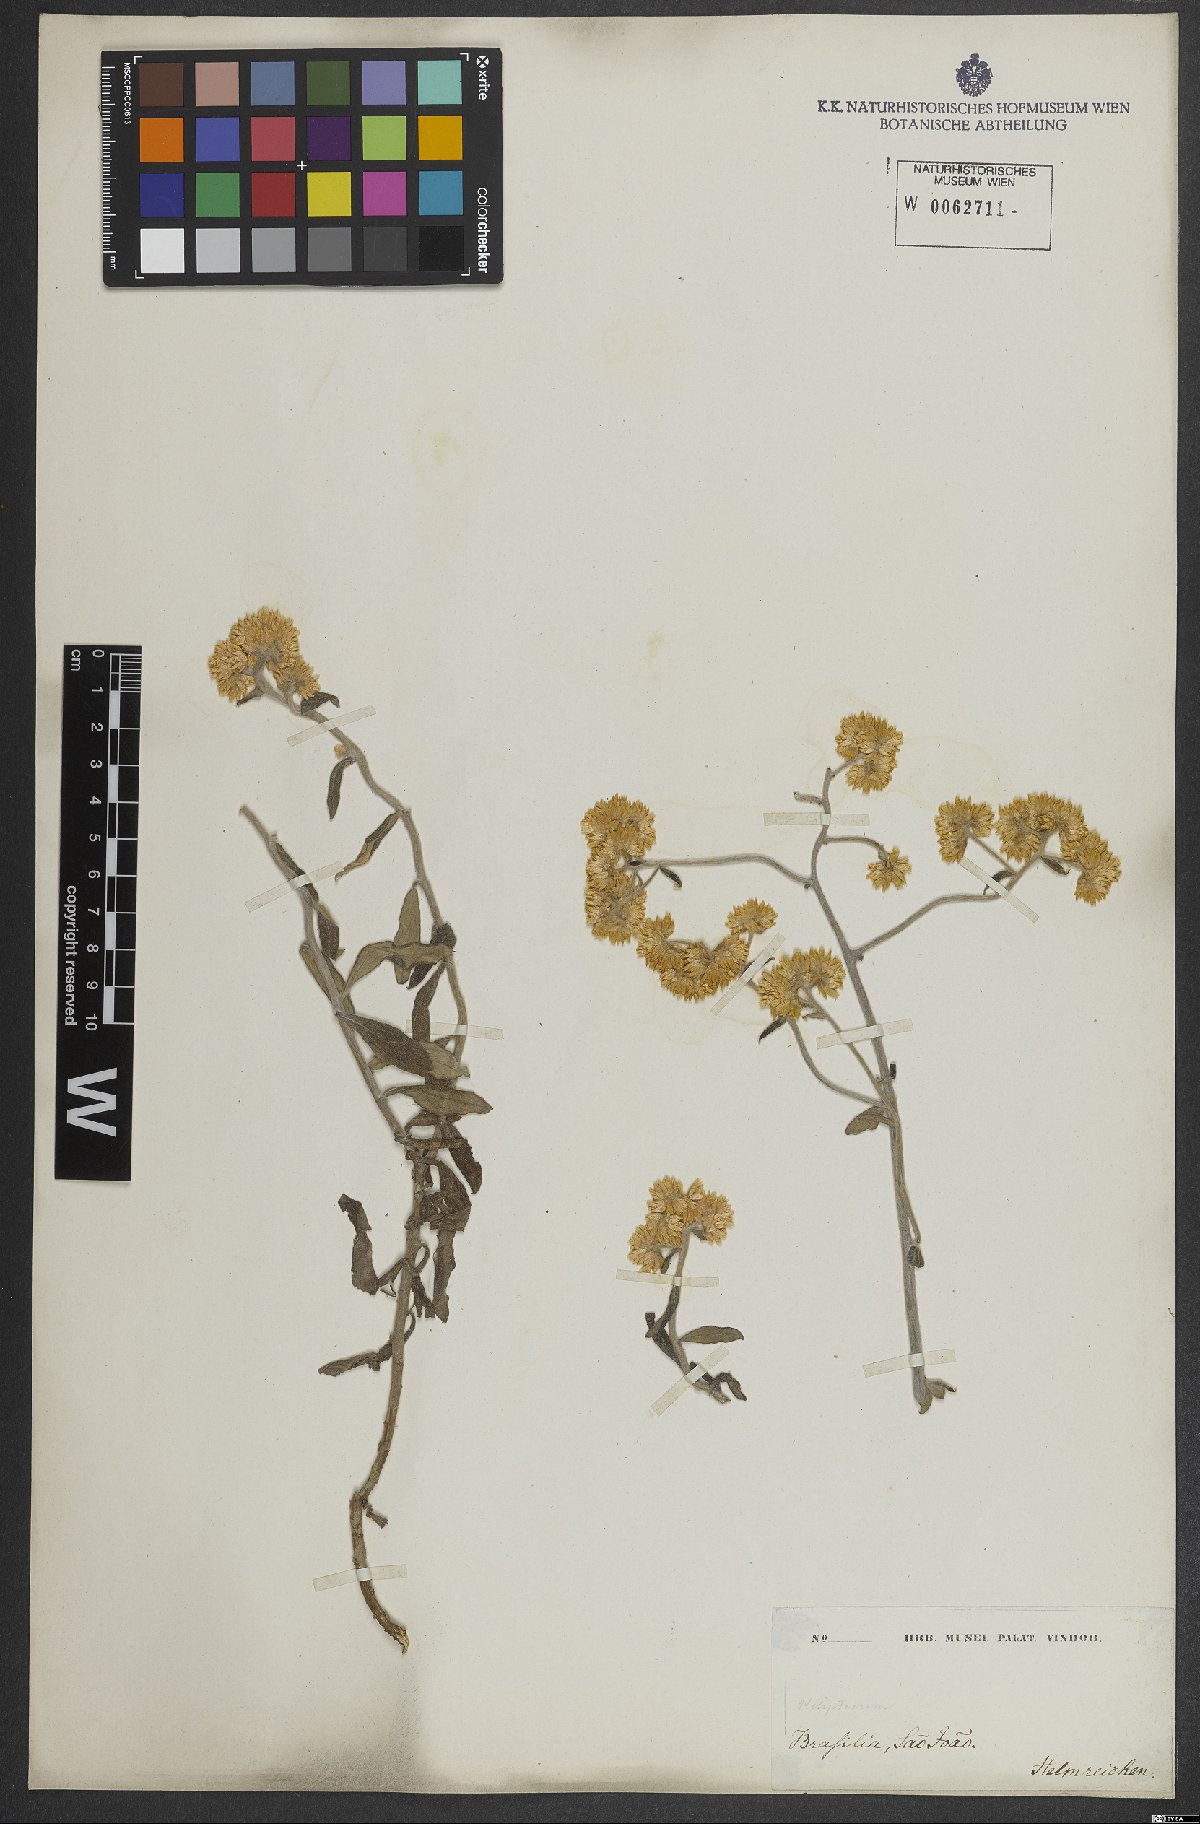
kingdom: Plantae
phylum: Tracheophyta
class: Magnoliopsida
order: Asterales
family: Asteraceae
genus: Achyrocline
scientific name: Achyrocline flaccida
